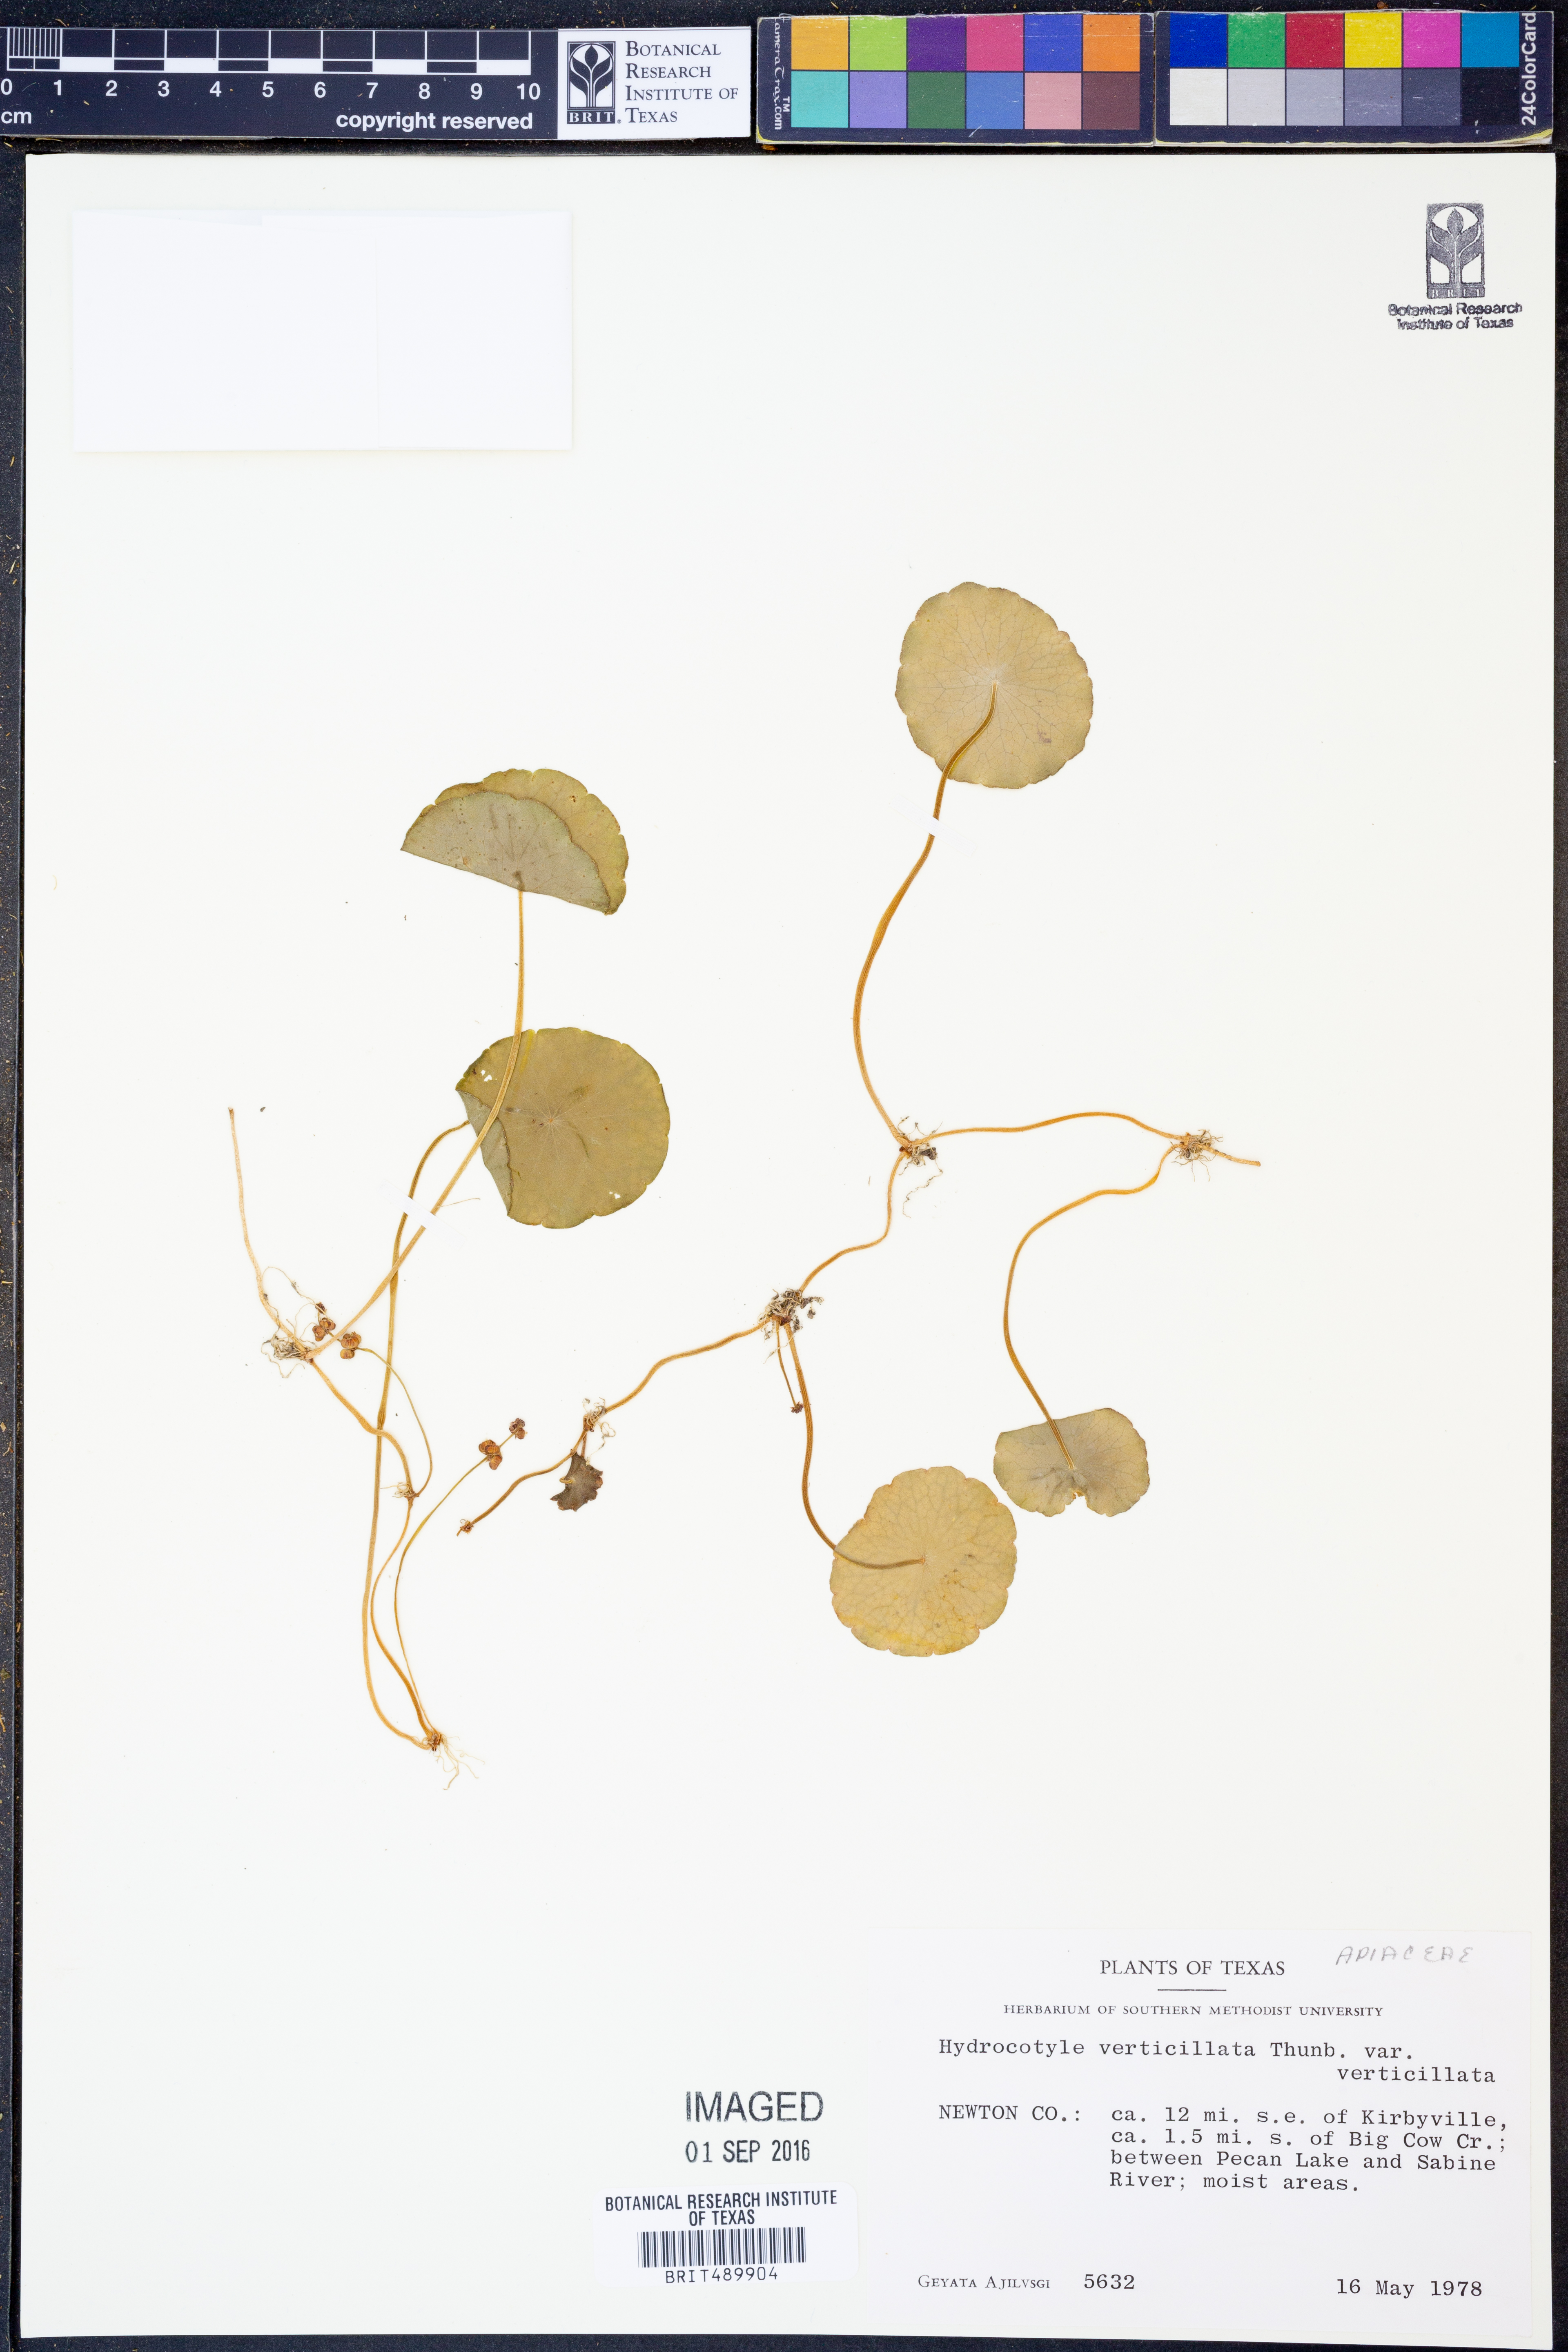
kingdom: Plantae
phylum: Tracheophyta
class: Magnoliopsida
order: Apiales
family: Araliaceae
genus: Hydrocotyle
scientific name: Hydrocotyle verticillata
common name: Whorled marshpennywort
